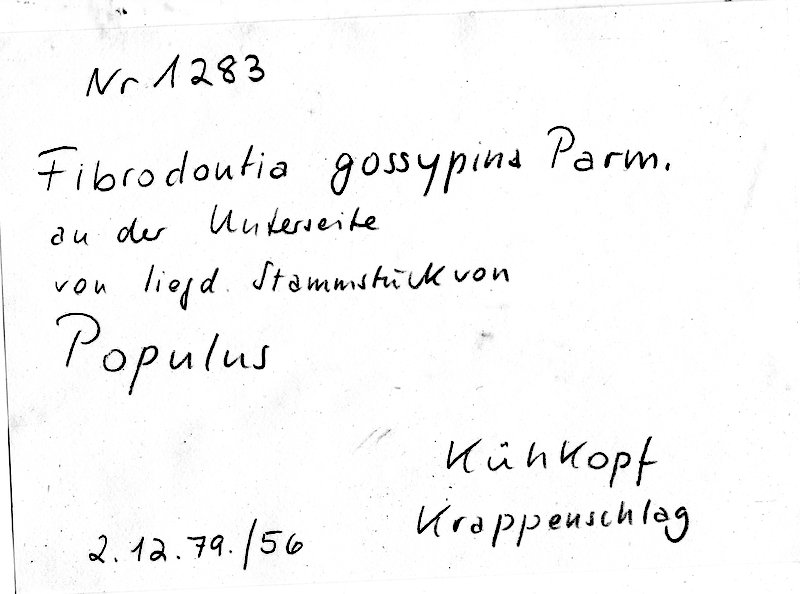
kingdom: Fungi
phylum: Basidiomycota
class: Agaricomycetes
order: Hymenochaetales
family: Schizoporaceae
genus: Fibrodontia
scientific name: Fibrodontia gossypina
